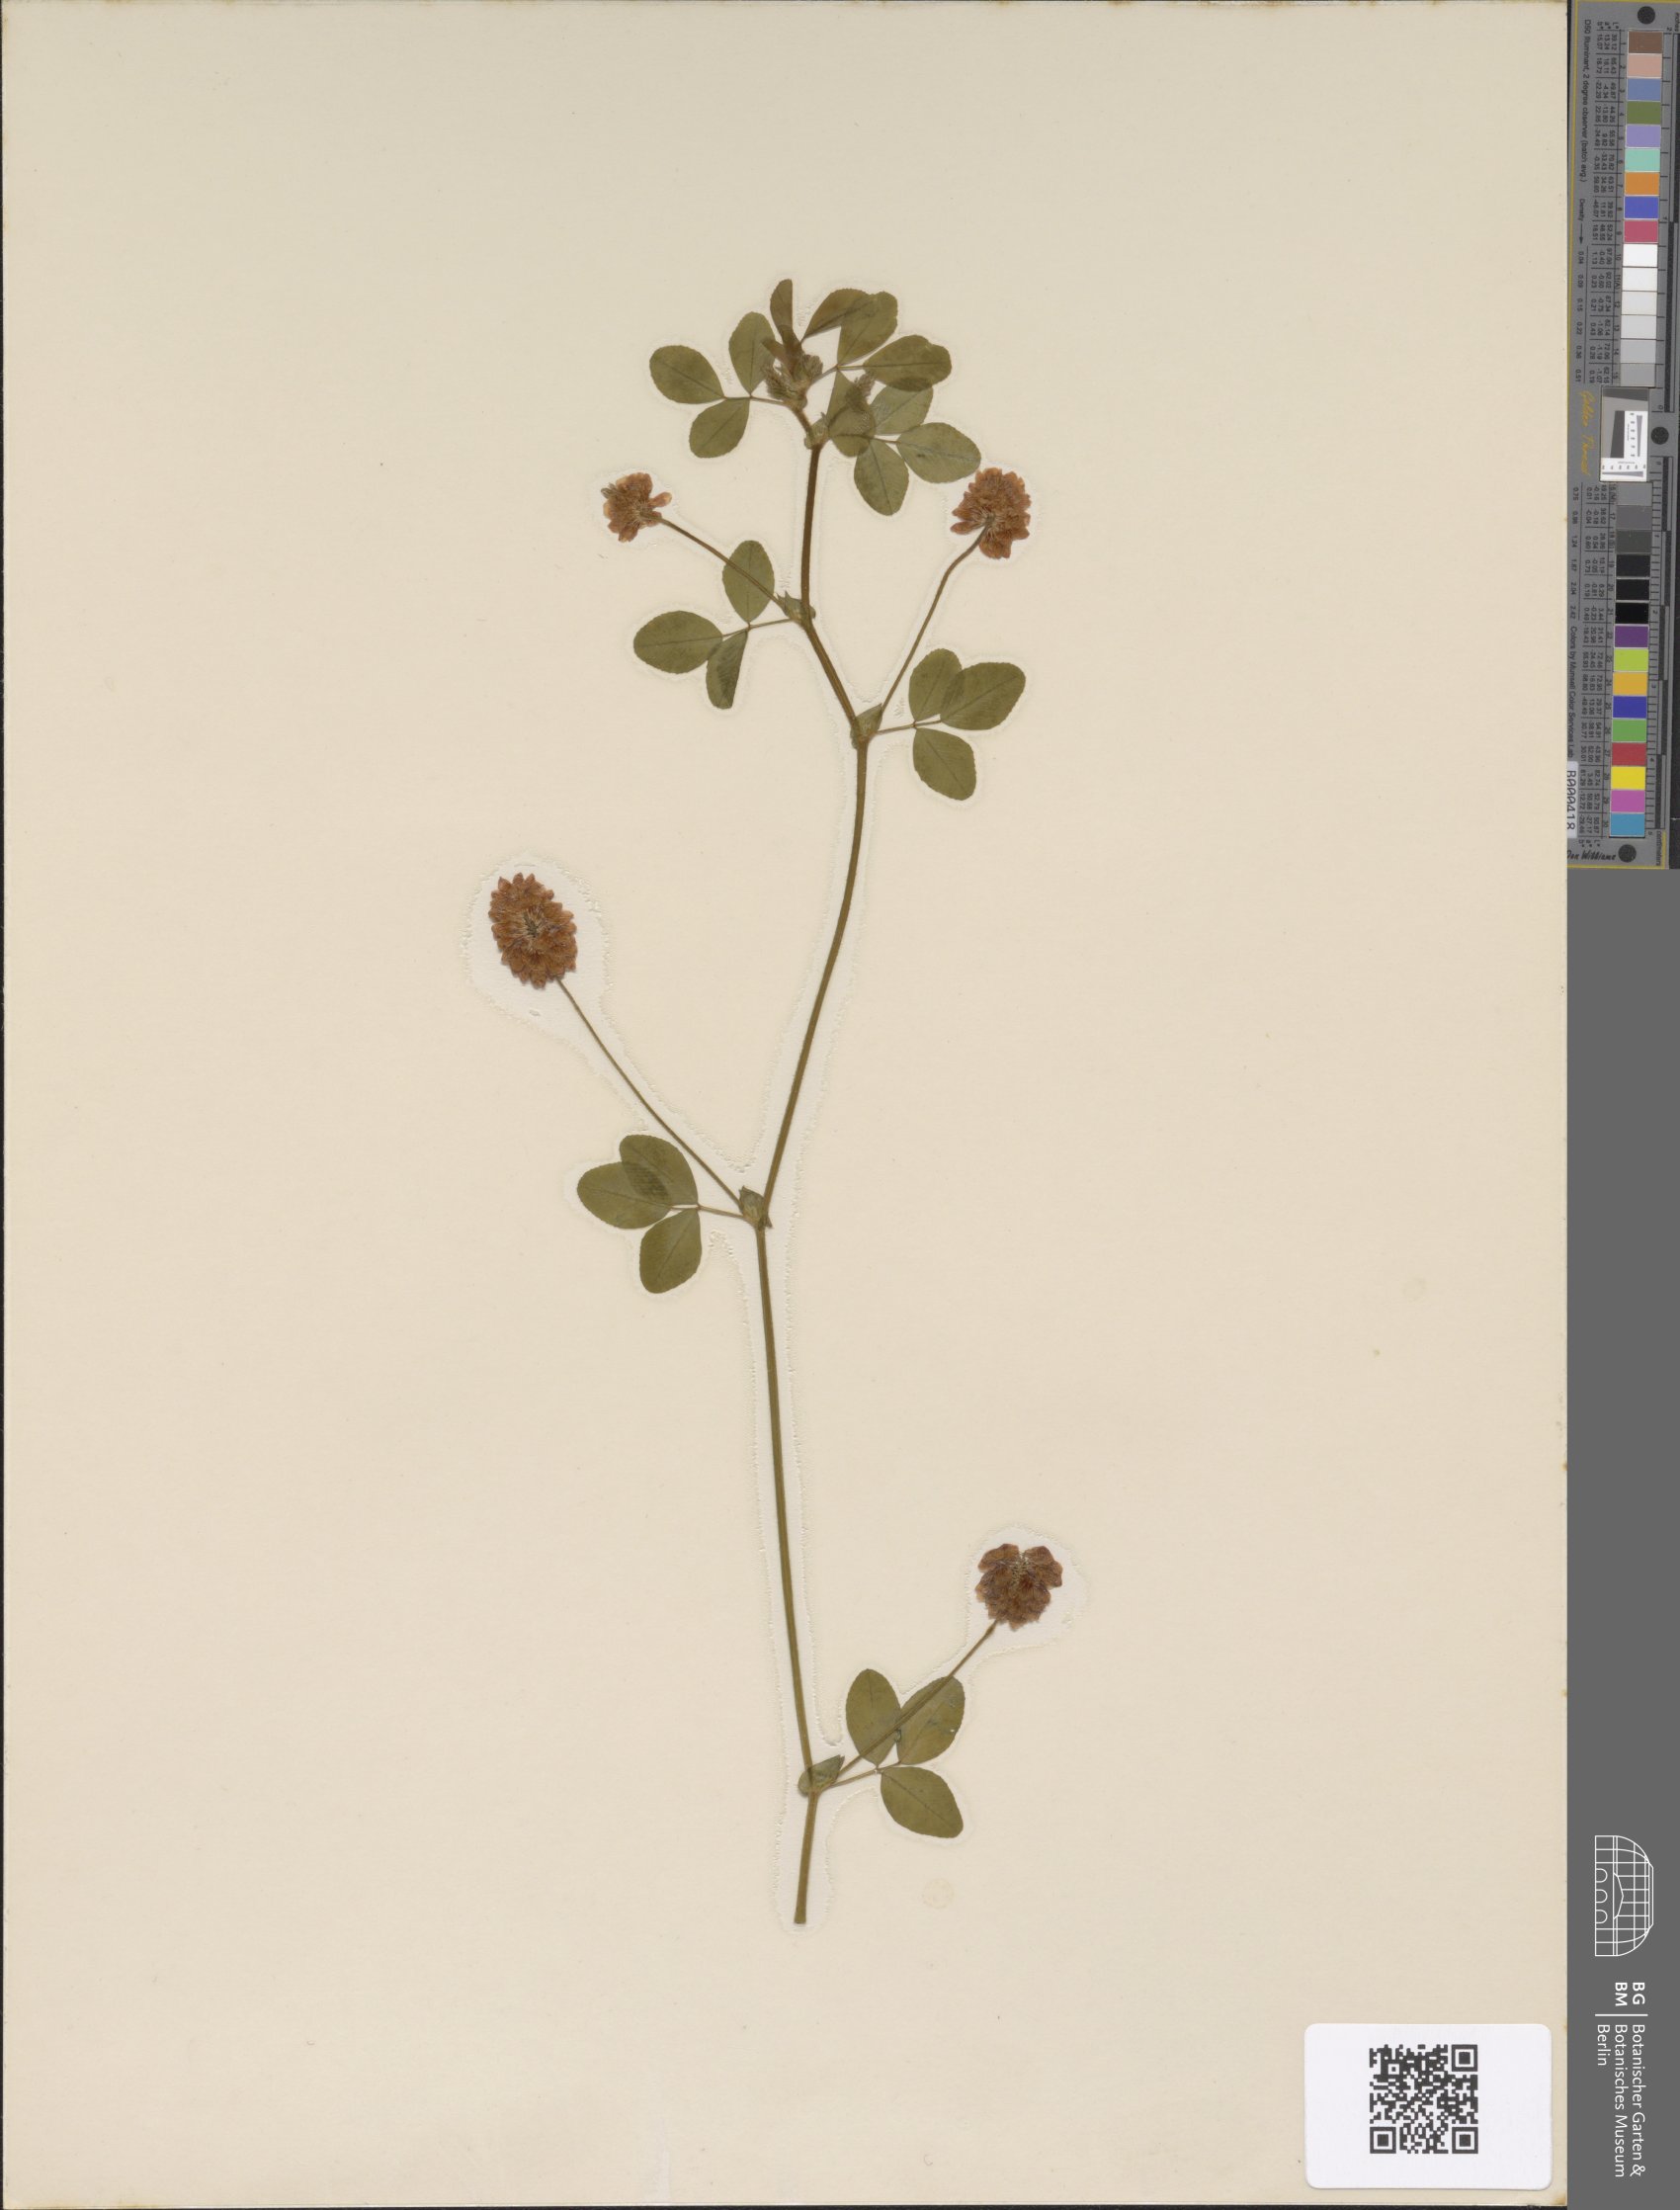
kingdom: Plantae
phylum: Tracheophyta
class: Magnoliopsida
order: Fabales
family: Fabaceae
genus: Trifolium
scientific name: Trifolium campestre
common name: Field clover
